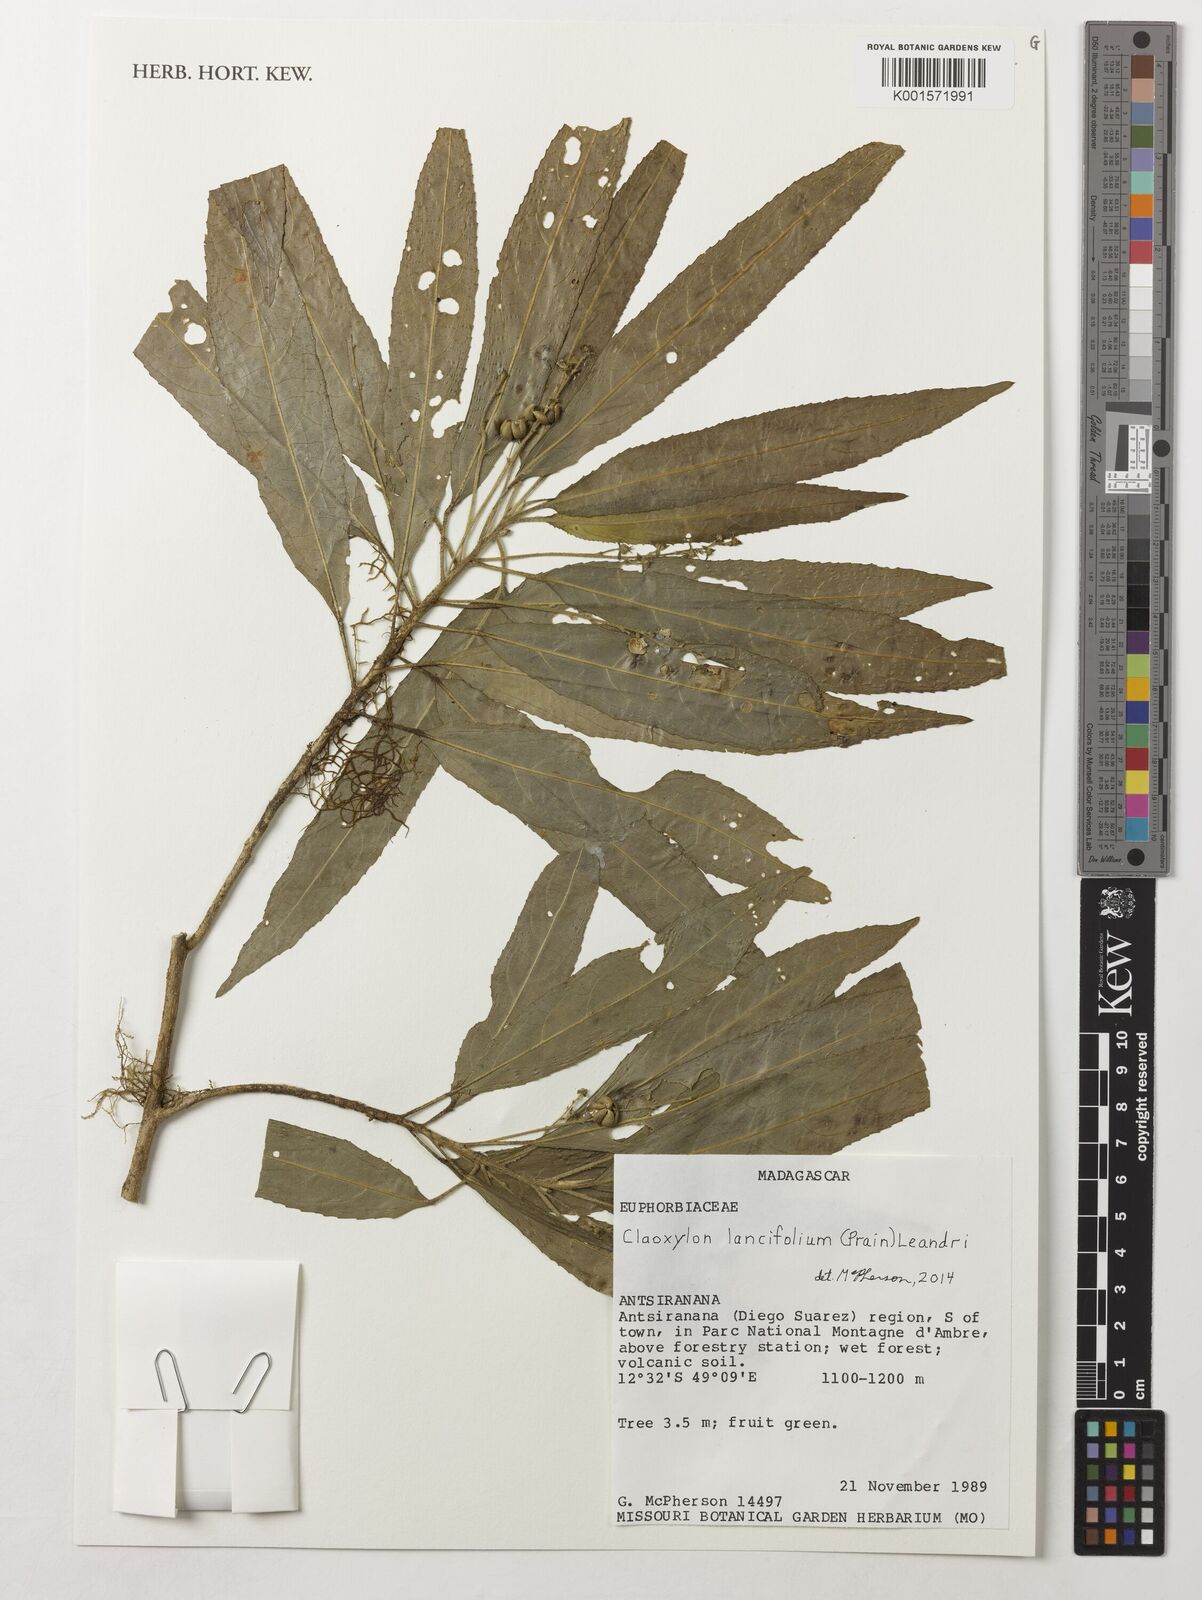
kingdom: Plantae
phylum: Tracheophyta
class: Magnoliopsida
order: Malpighiales
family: Euphorbiaceae
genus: Micrococca
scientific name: Micrococca lancifolia
